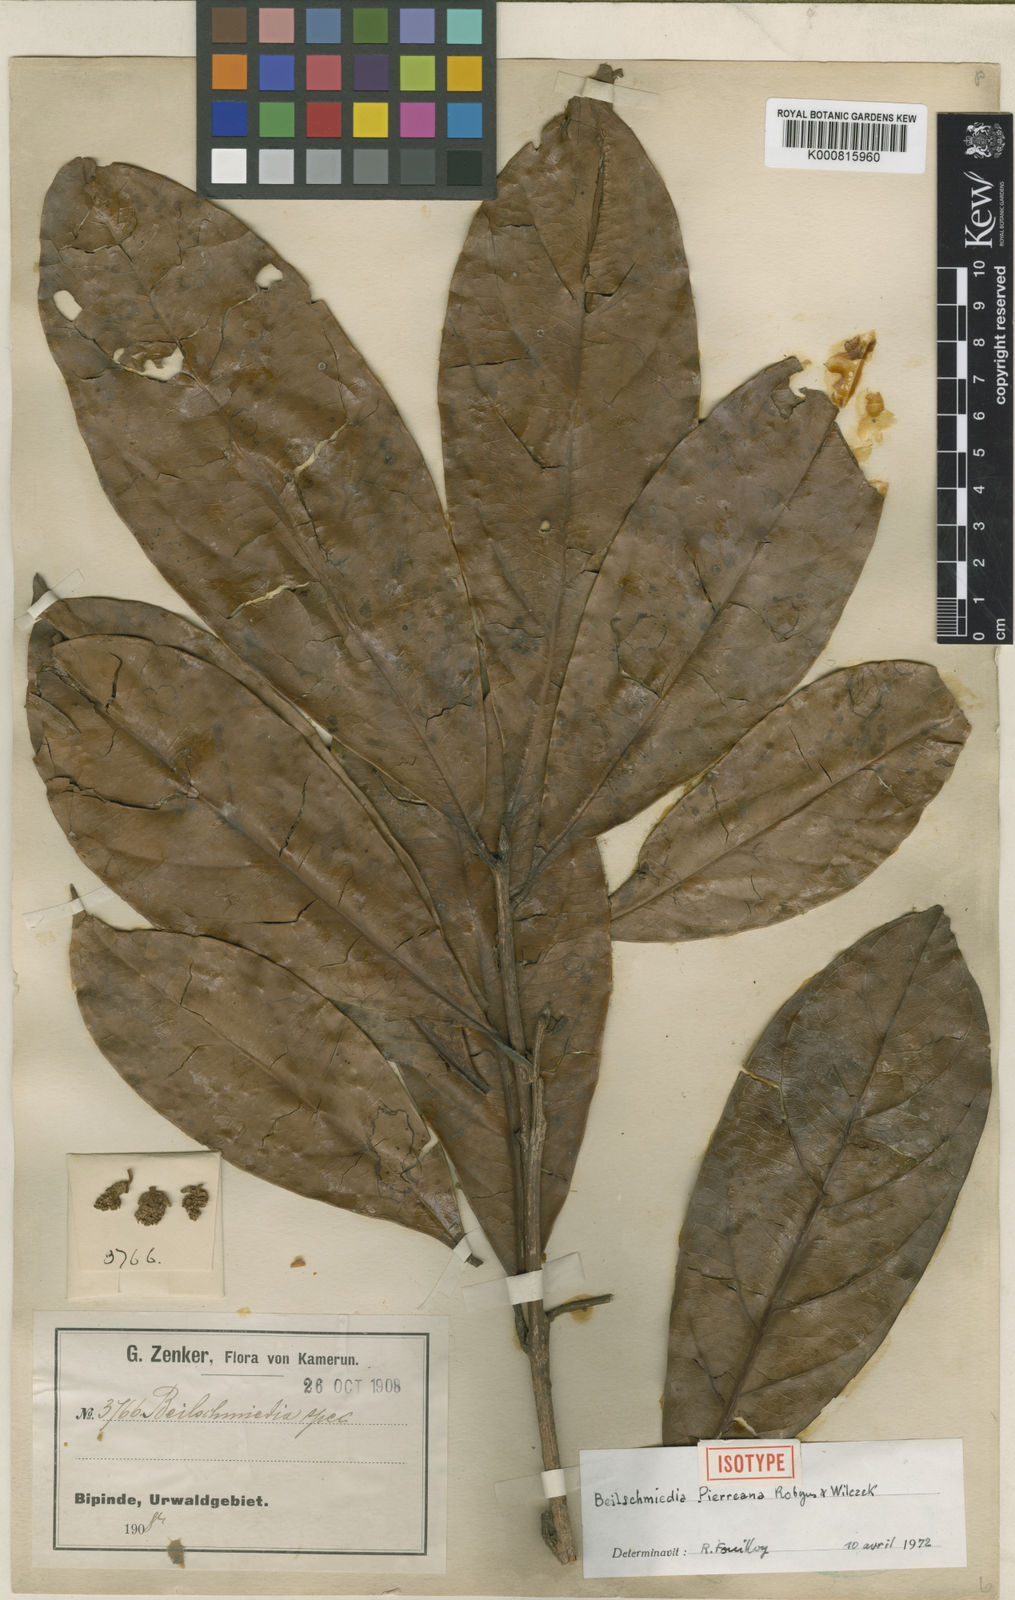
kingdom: Plantae
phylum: Tracheophyta
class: Magnoliopsida
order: Laurales
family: Lauraceae
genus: Beilschmiedia
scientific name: Beilschmiedia pierreana
